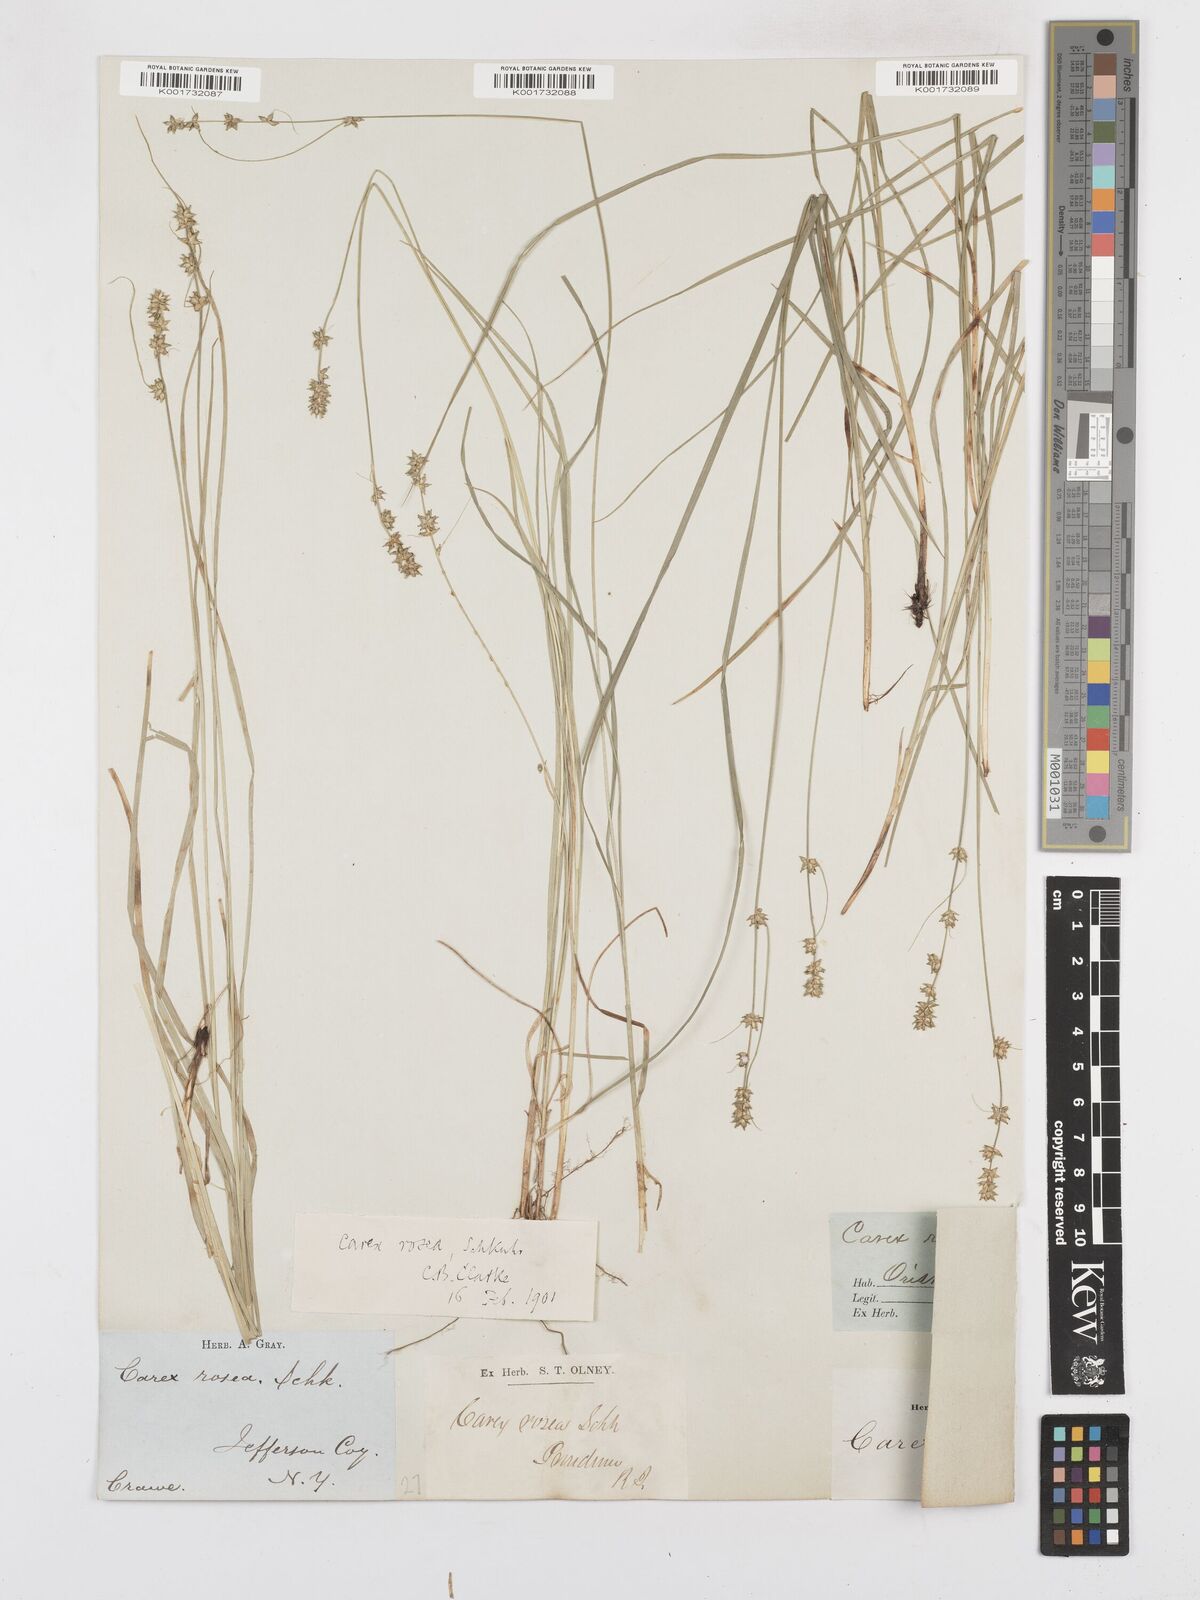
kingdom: Plantae
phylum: Tracheophyta
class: Liliopsida
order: Poales
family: Cyperaceae
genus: Carex
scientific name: Carex rosea
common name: Curly-styled wood sedge
